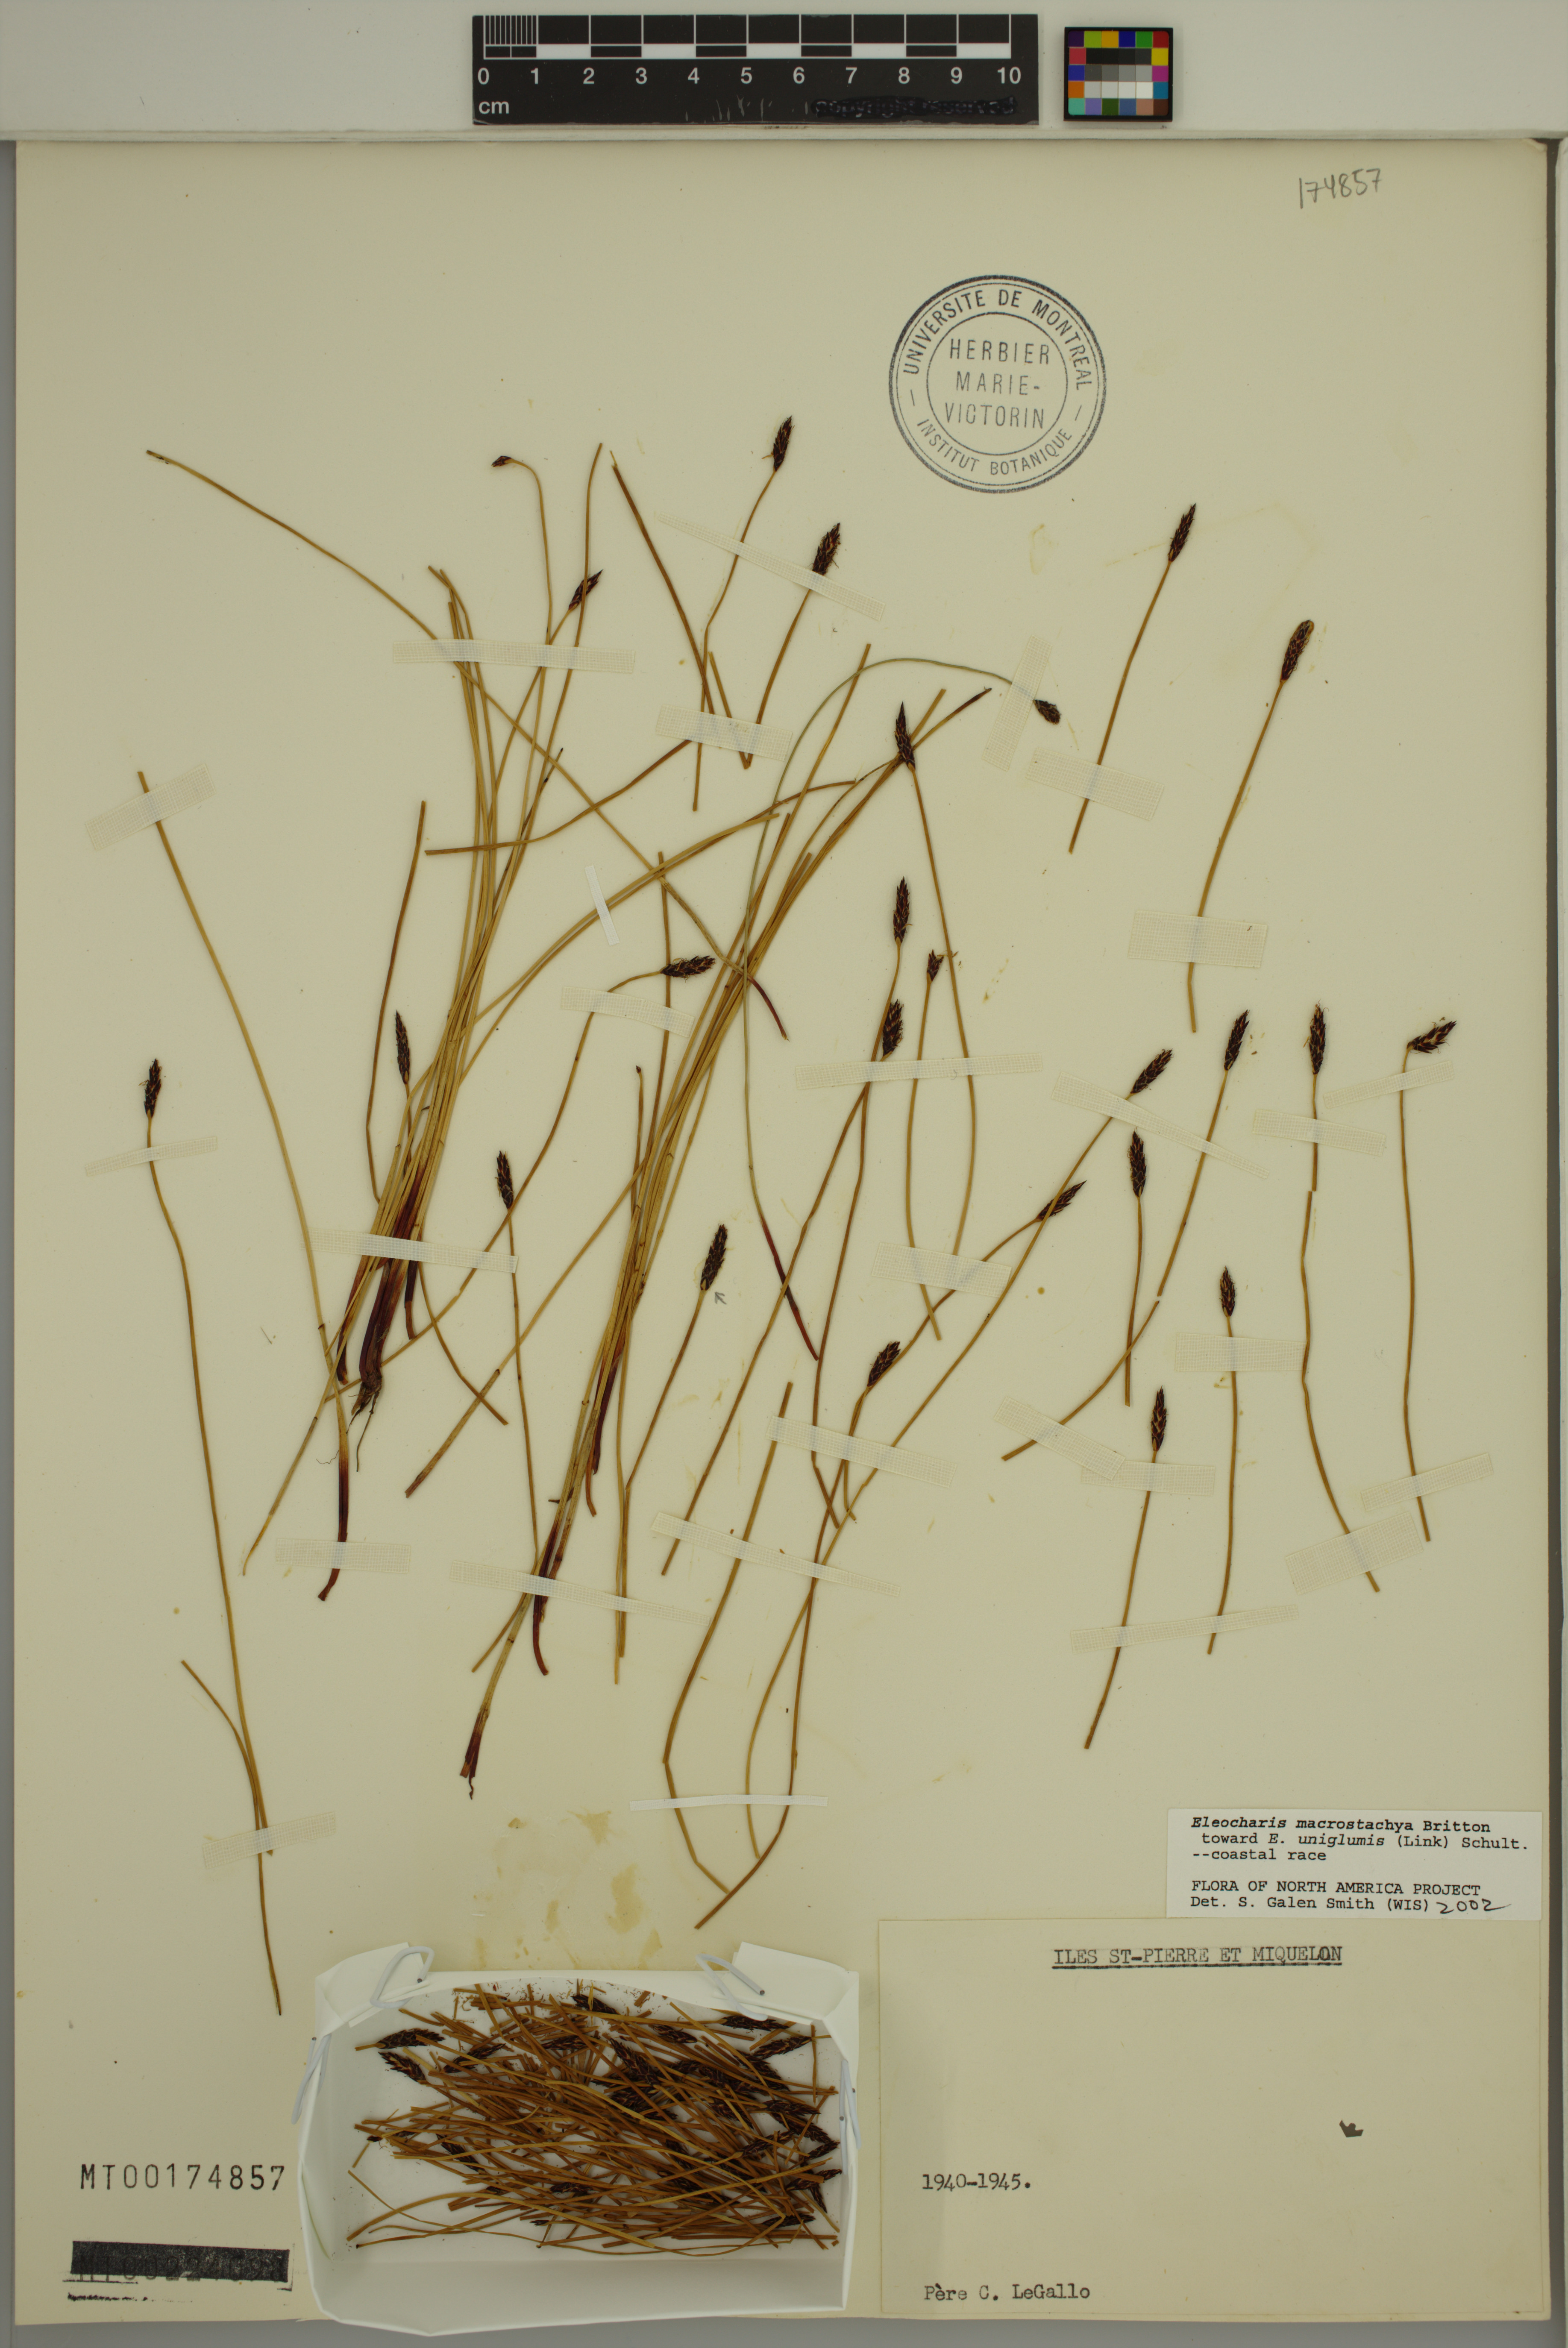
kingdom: Plantae
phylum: Tracheophyta
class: Liliopsida
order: Poales
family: Cyperaceae
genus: Eleocharis
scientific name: Eleocharis macrostachya
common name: Pale spikerush
